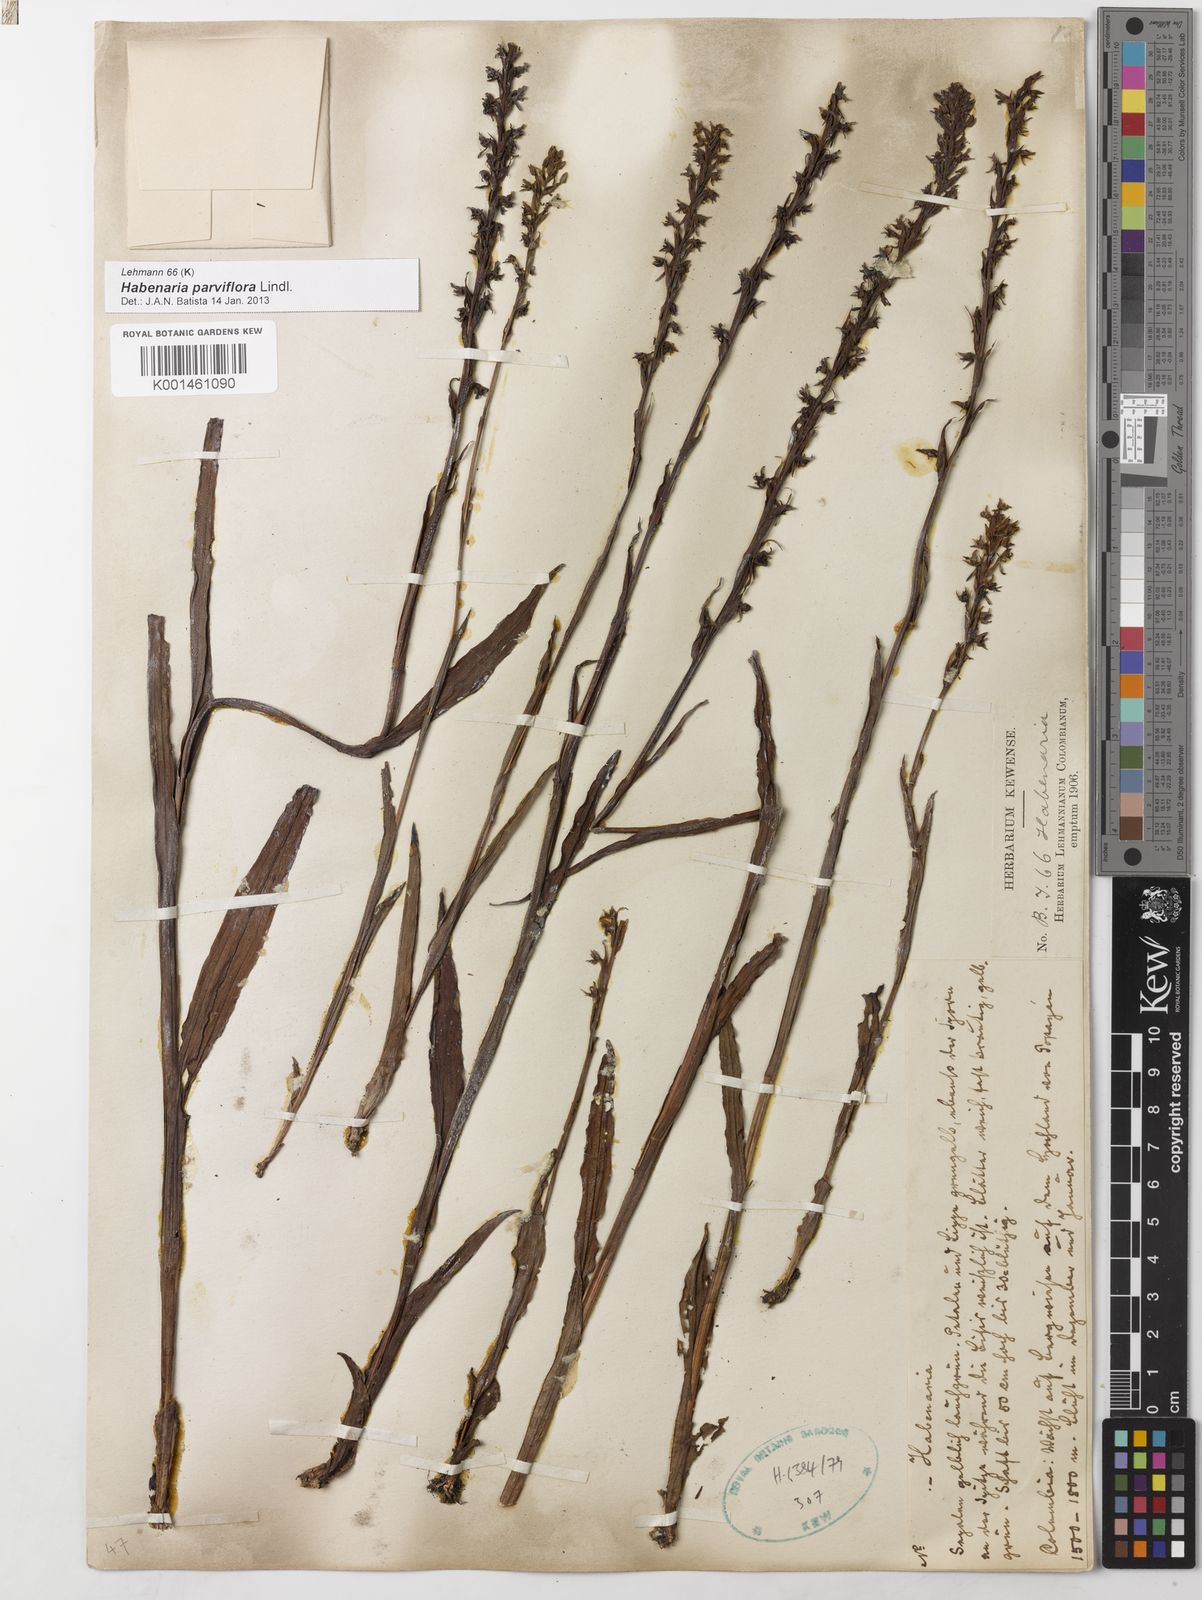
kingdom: Plantae
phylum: Tracheophyta
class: Liliopsida
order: Asparagales
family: Orchidaceae
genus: Habenaria
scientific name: Habenaria parviflora
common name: Small flowered habenaria
